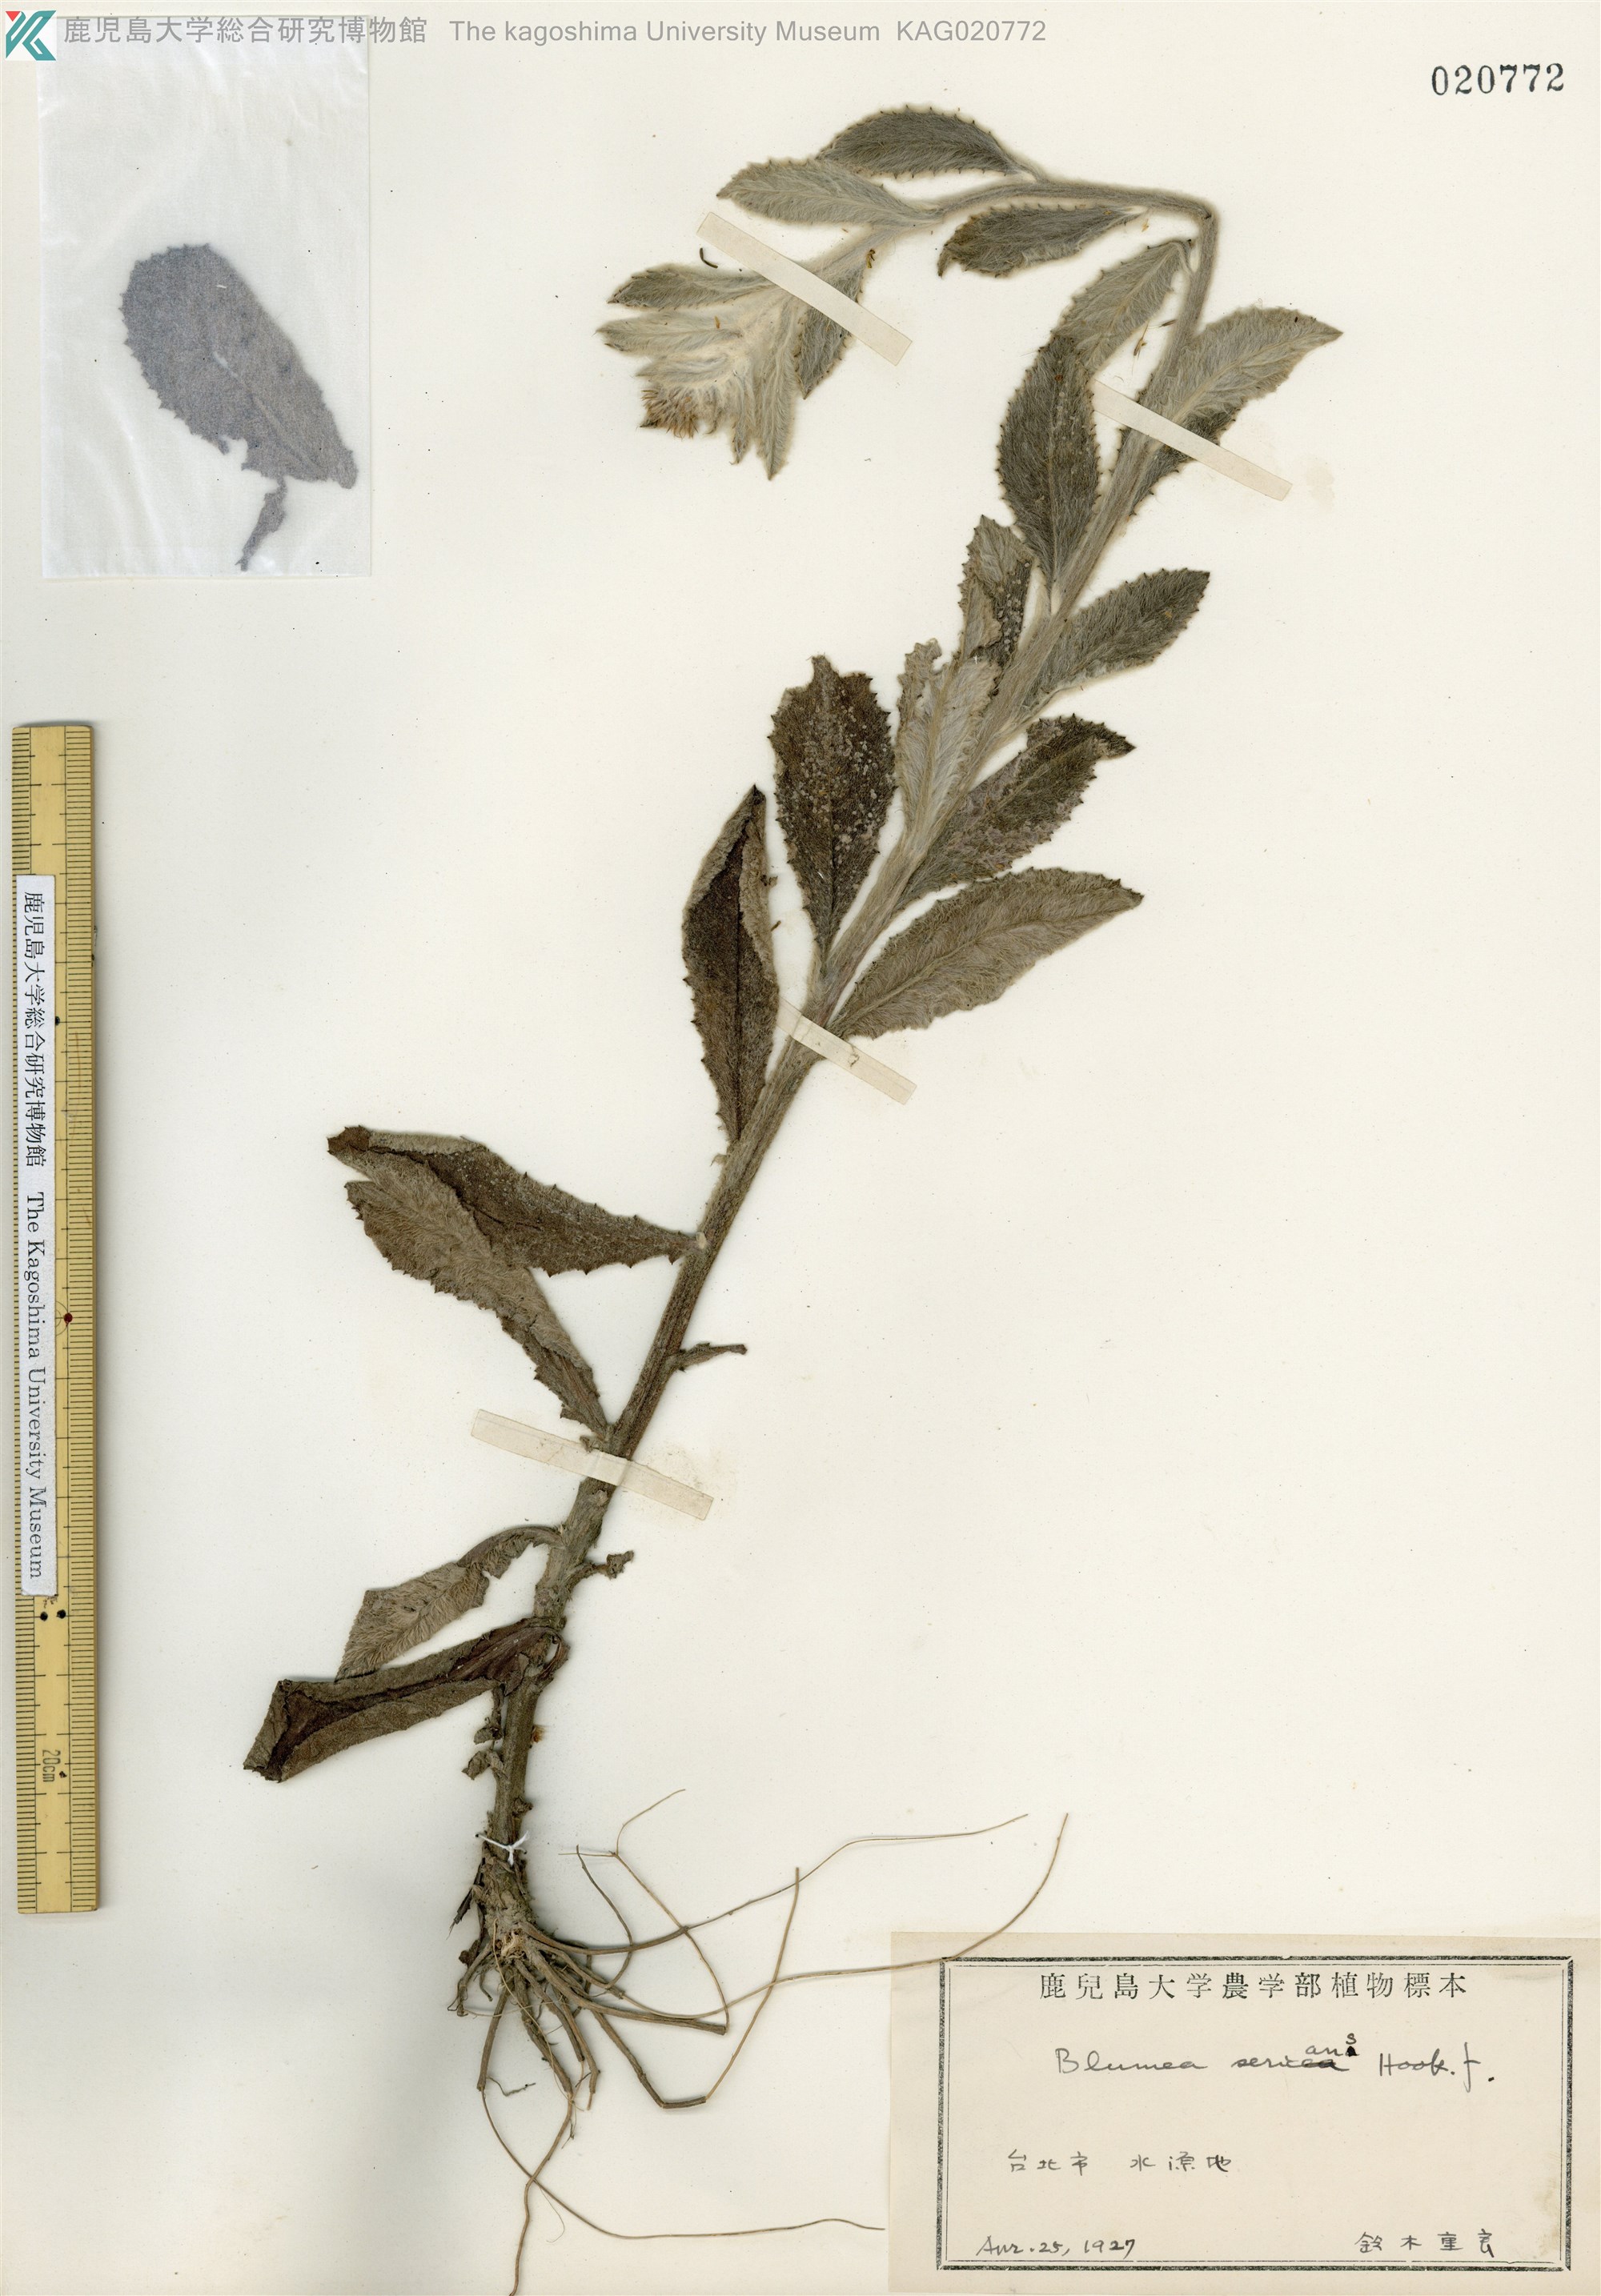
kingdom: Plantae
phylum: Tracheophyta
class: Magnoliopsida
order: Asterales
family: Asteraceae
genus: Blumea
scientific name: Blumea hieraciifolia
